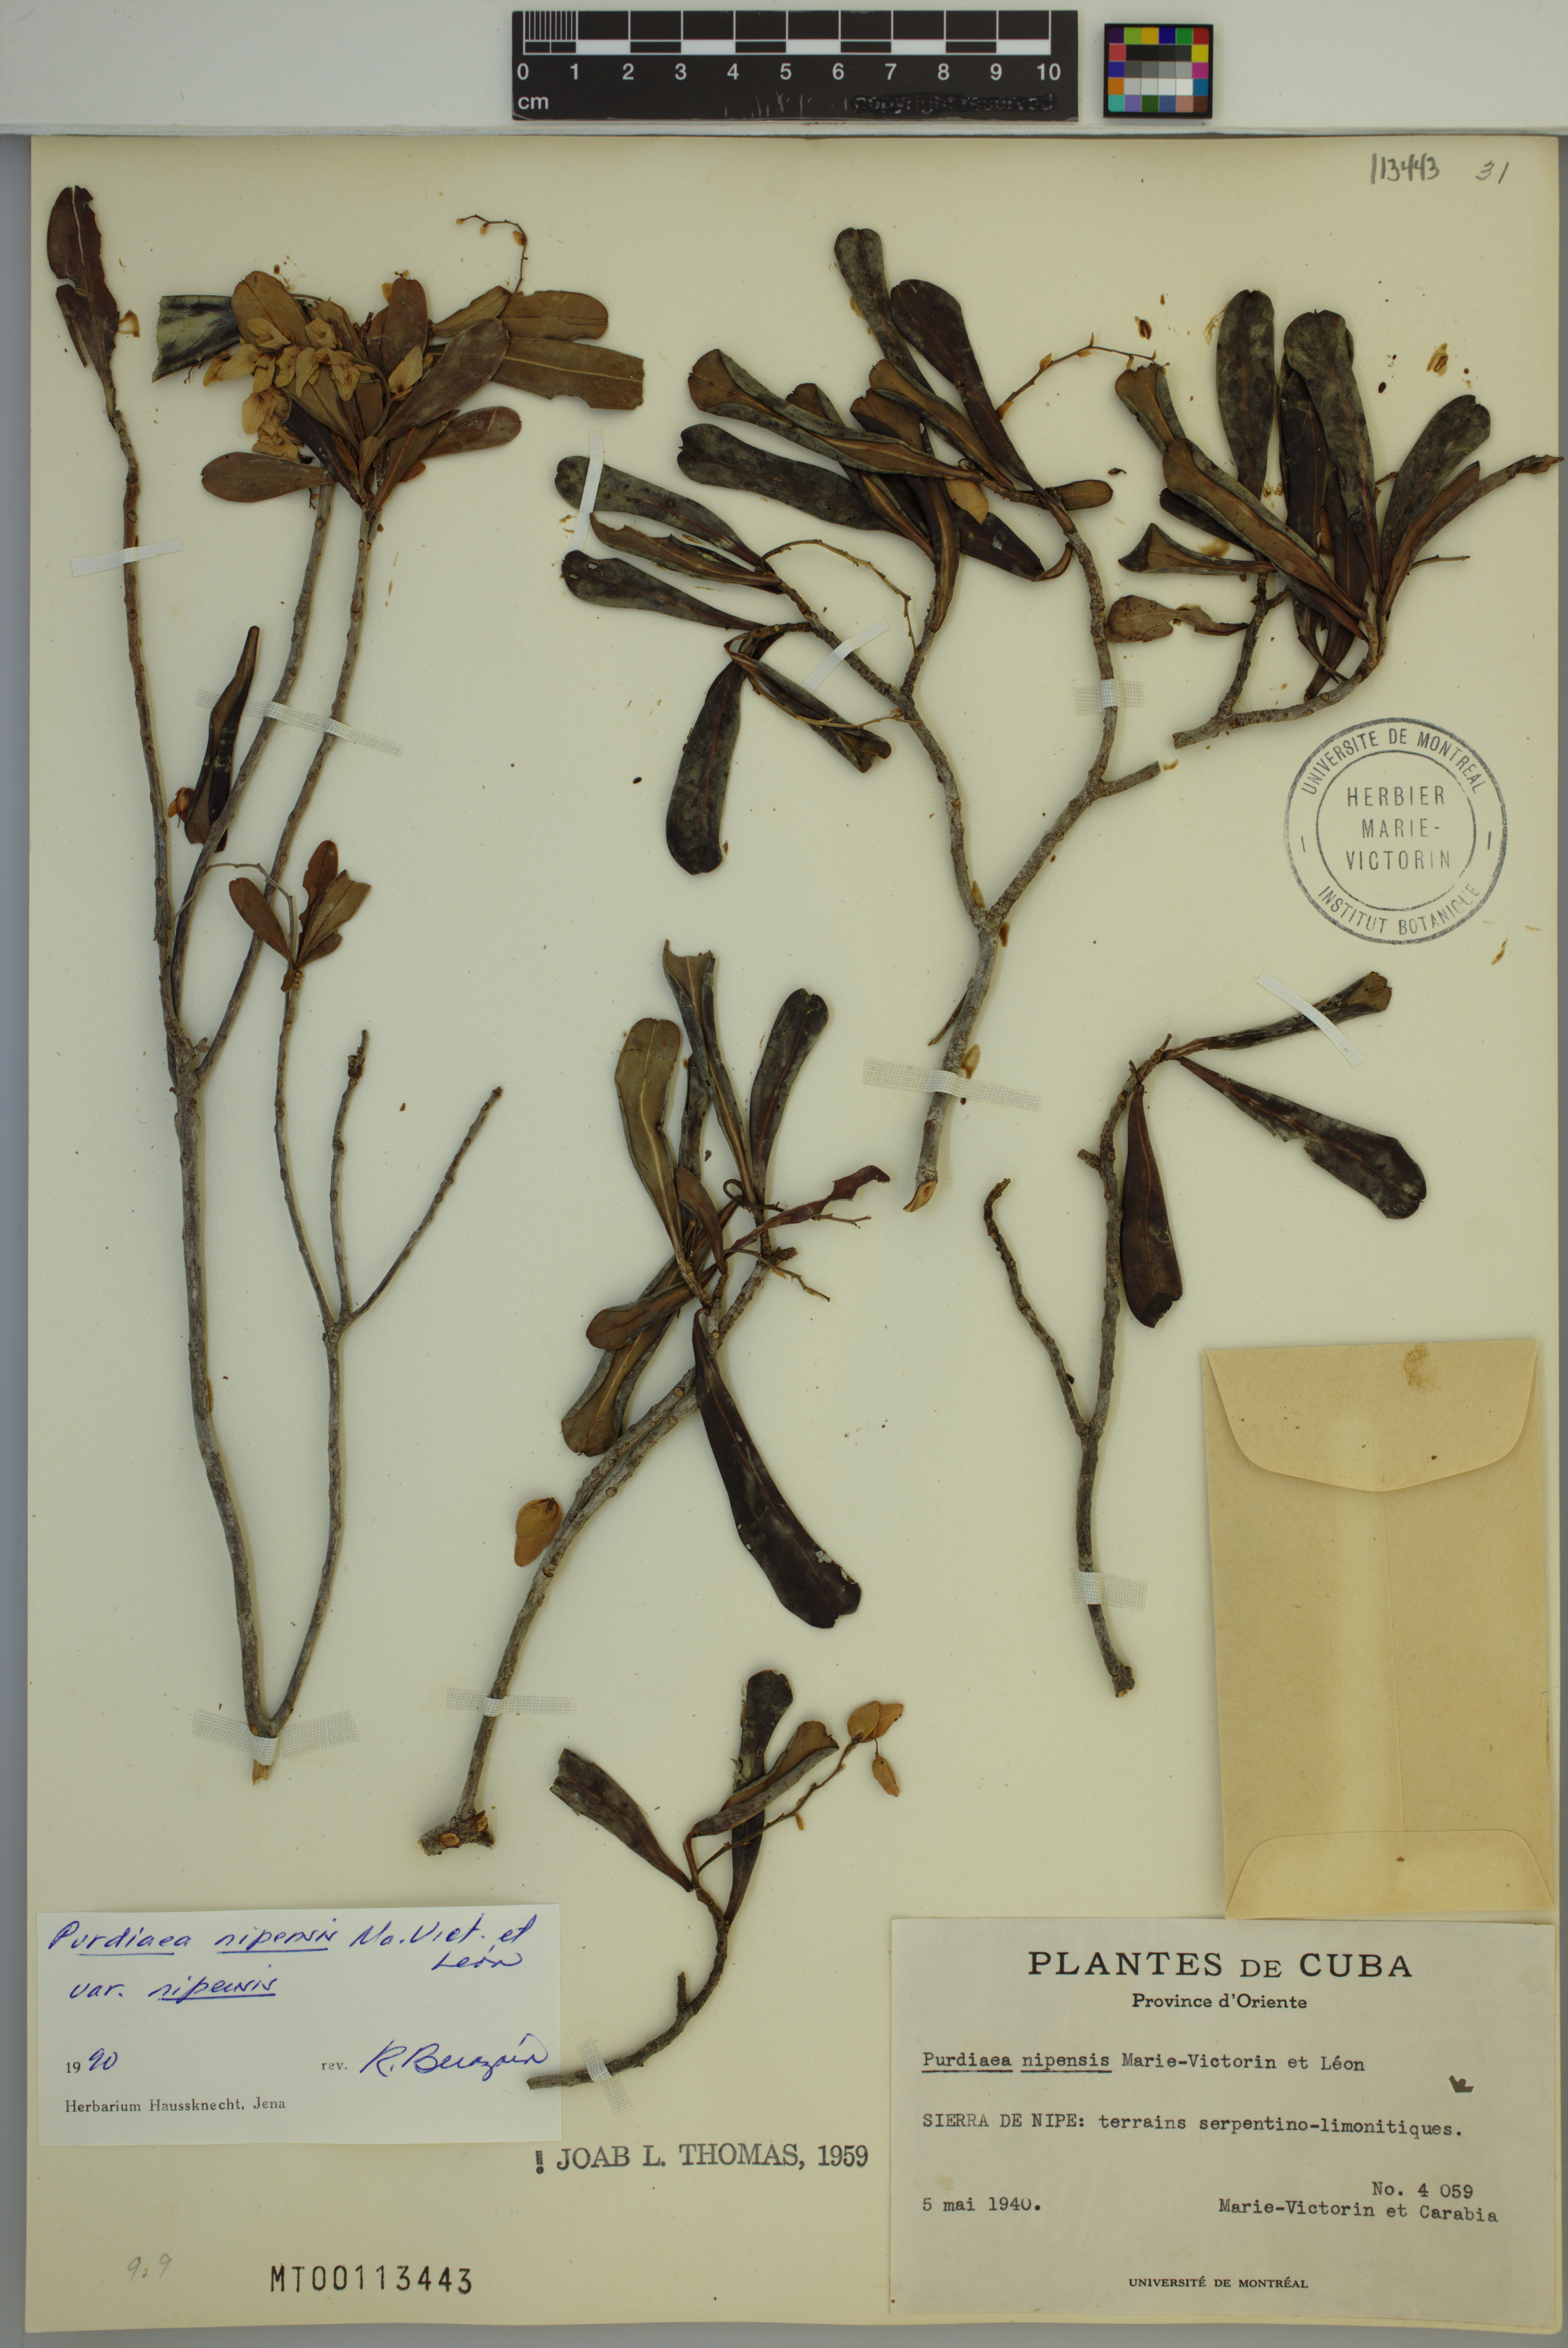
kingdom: Plantae
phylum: Tracheophyta
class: Magnoliopsida
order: Ericales
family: Clethraceae
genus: Purdiaea
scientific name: Purdiaea nipensis
